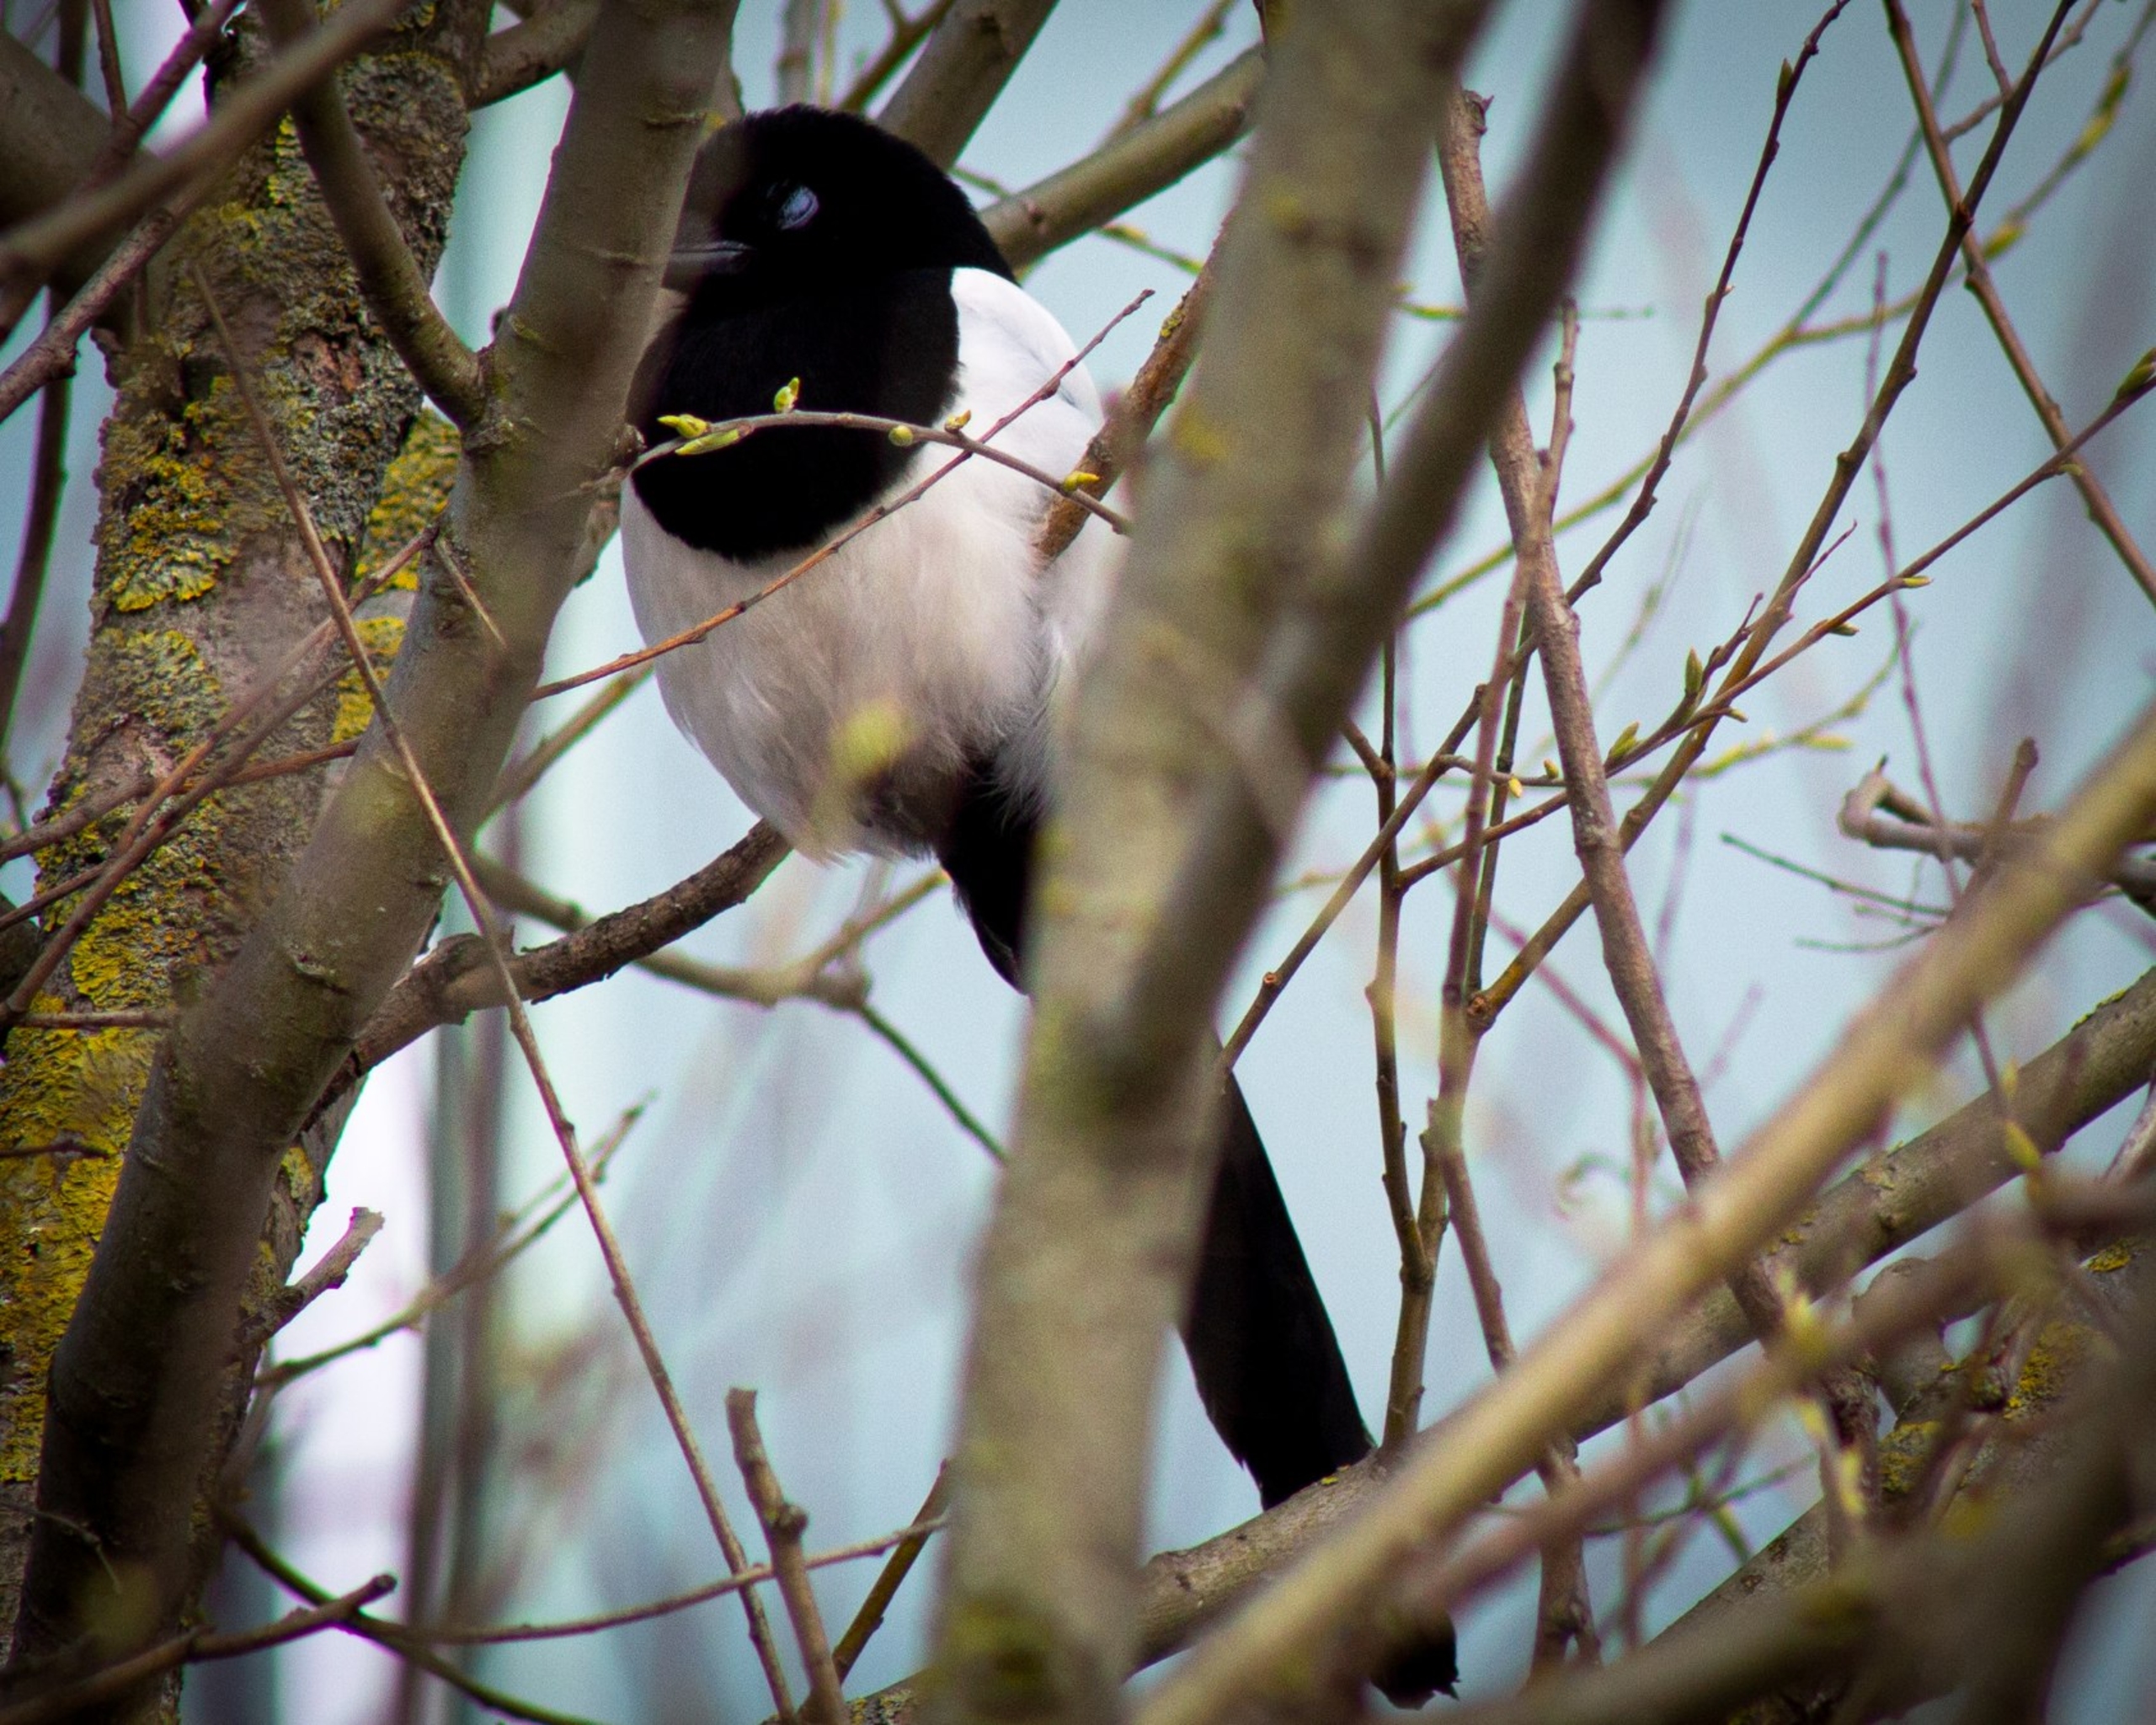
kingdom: Animalia
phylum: Chordata
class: Aves
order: Passeriformes
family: Corvidae
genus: Pica
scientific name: Pica pica
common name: Husskade
